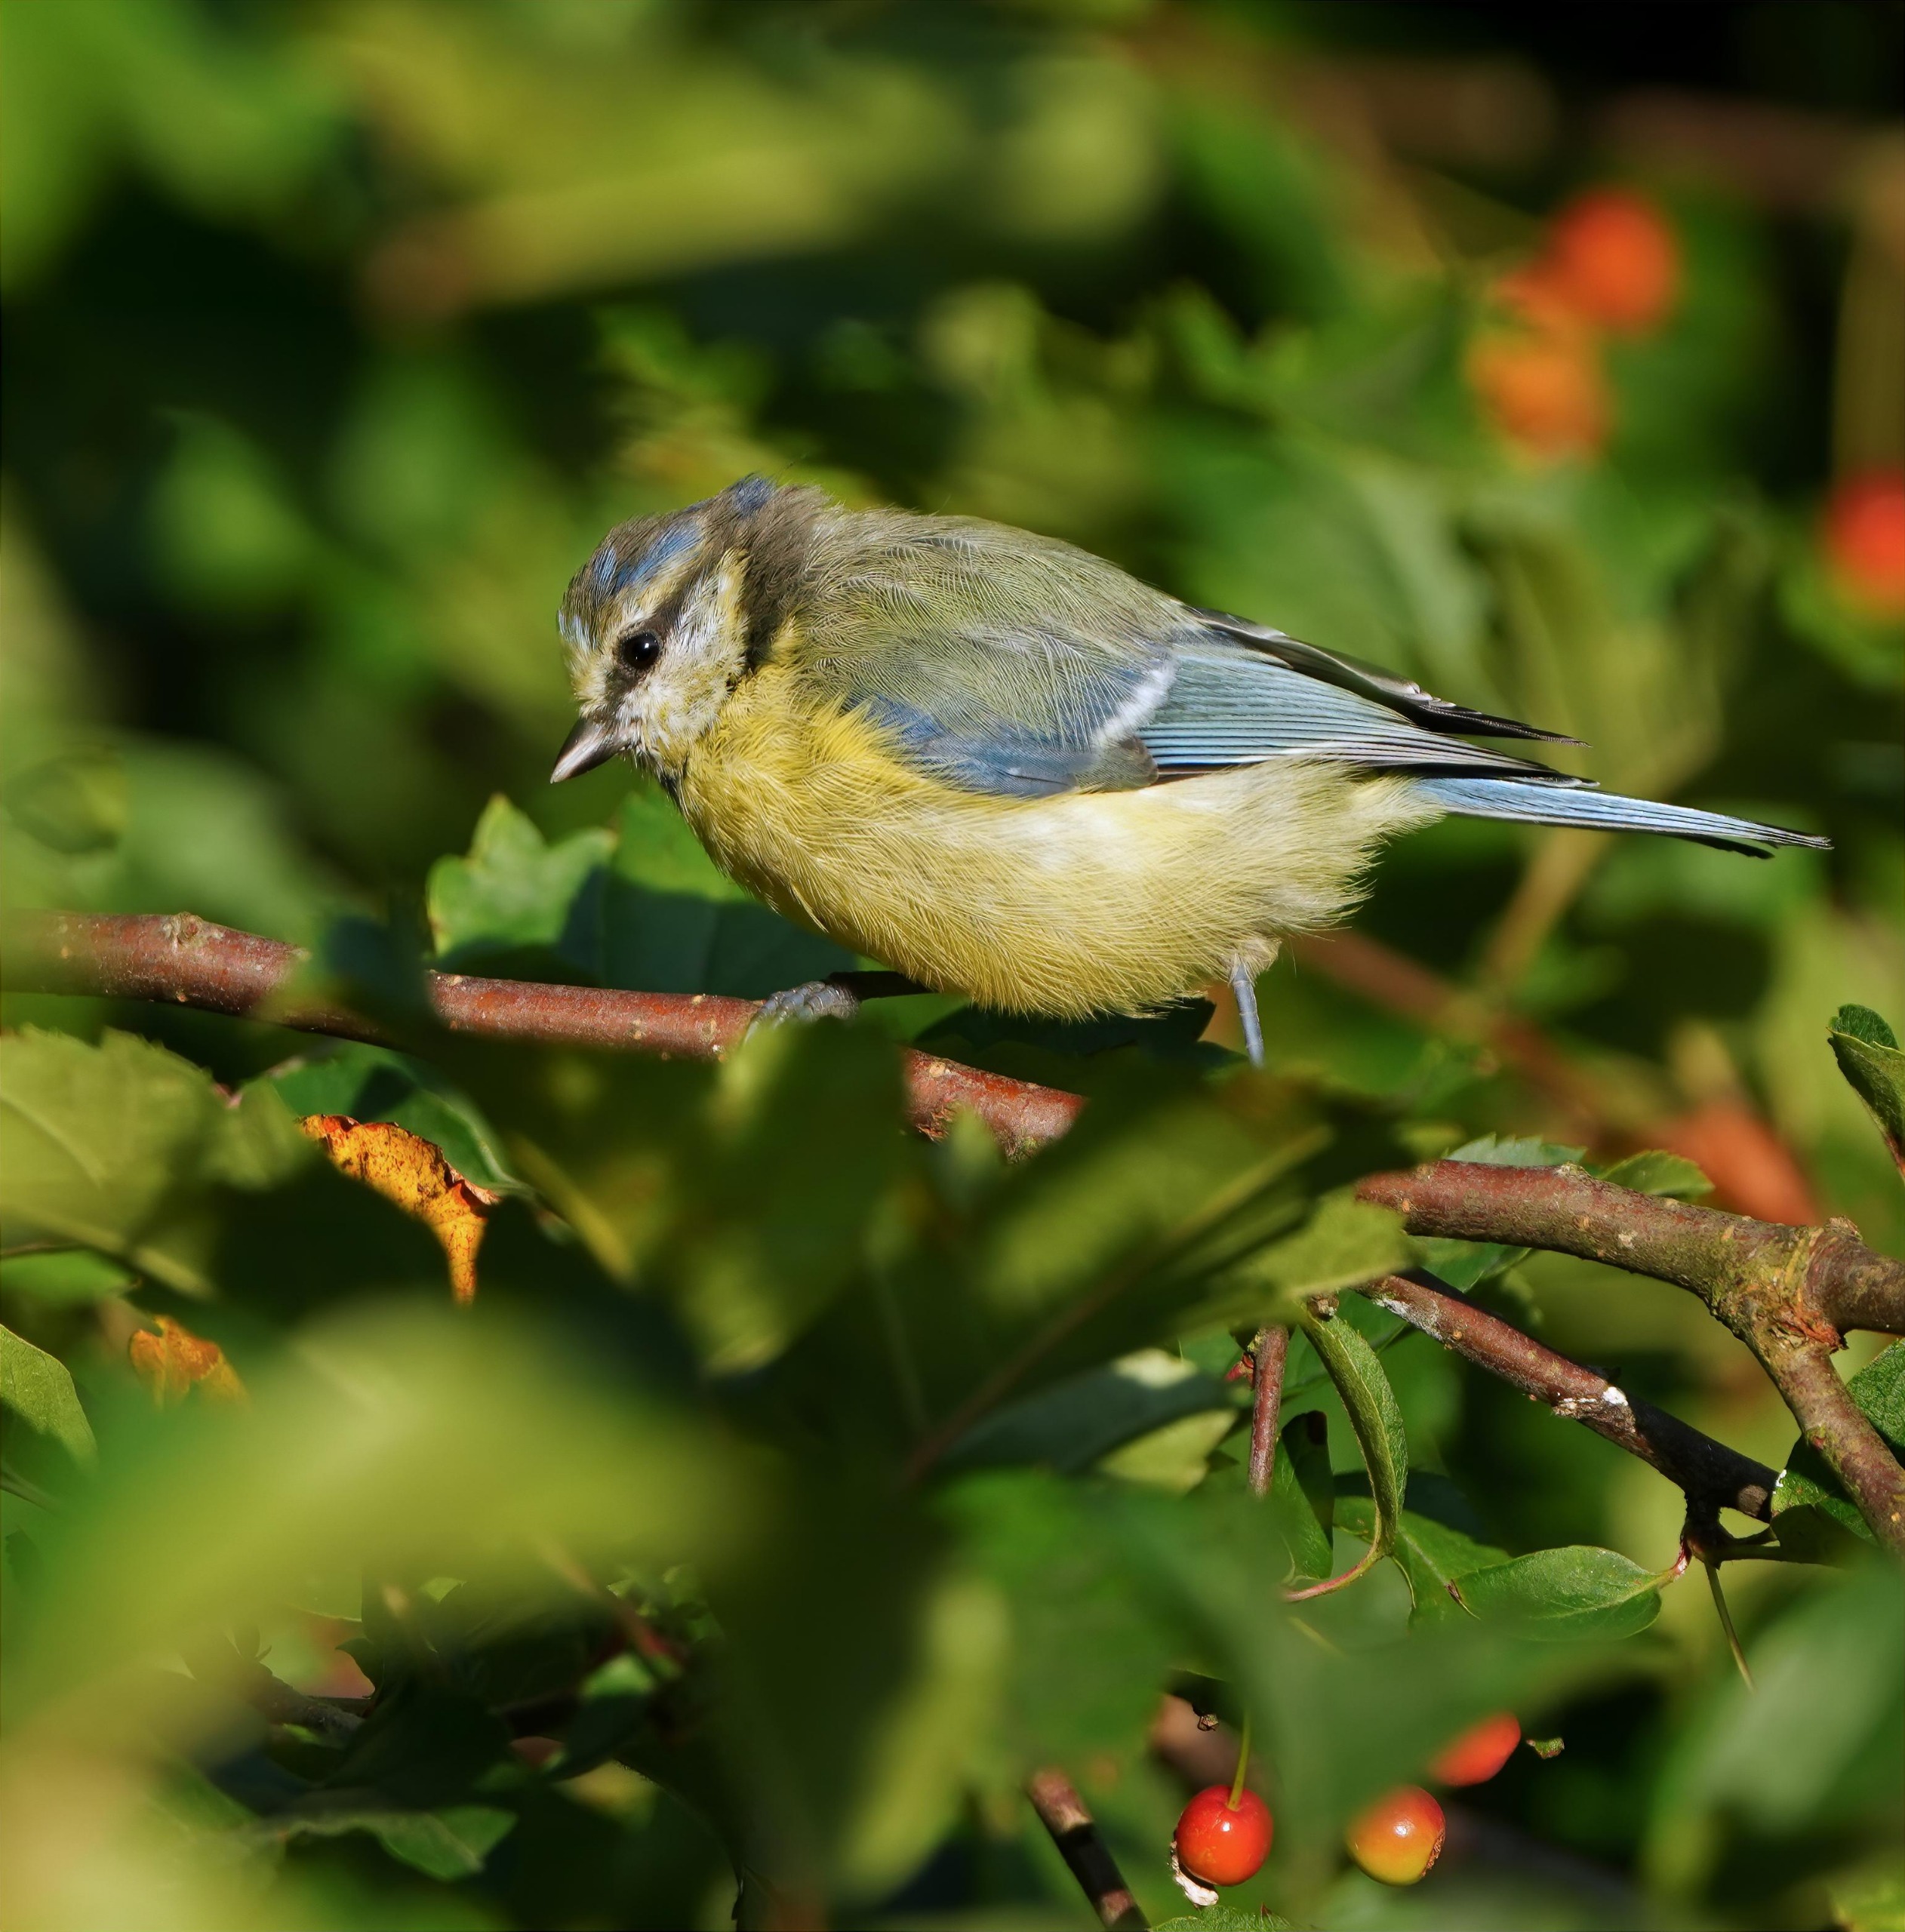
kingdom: Animalia
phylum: Chordata
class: Aves
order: Passeriformes
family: Paridae
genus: Cyanistes
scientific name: Cyanistes caeruleus
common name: Blåmejse
